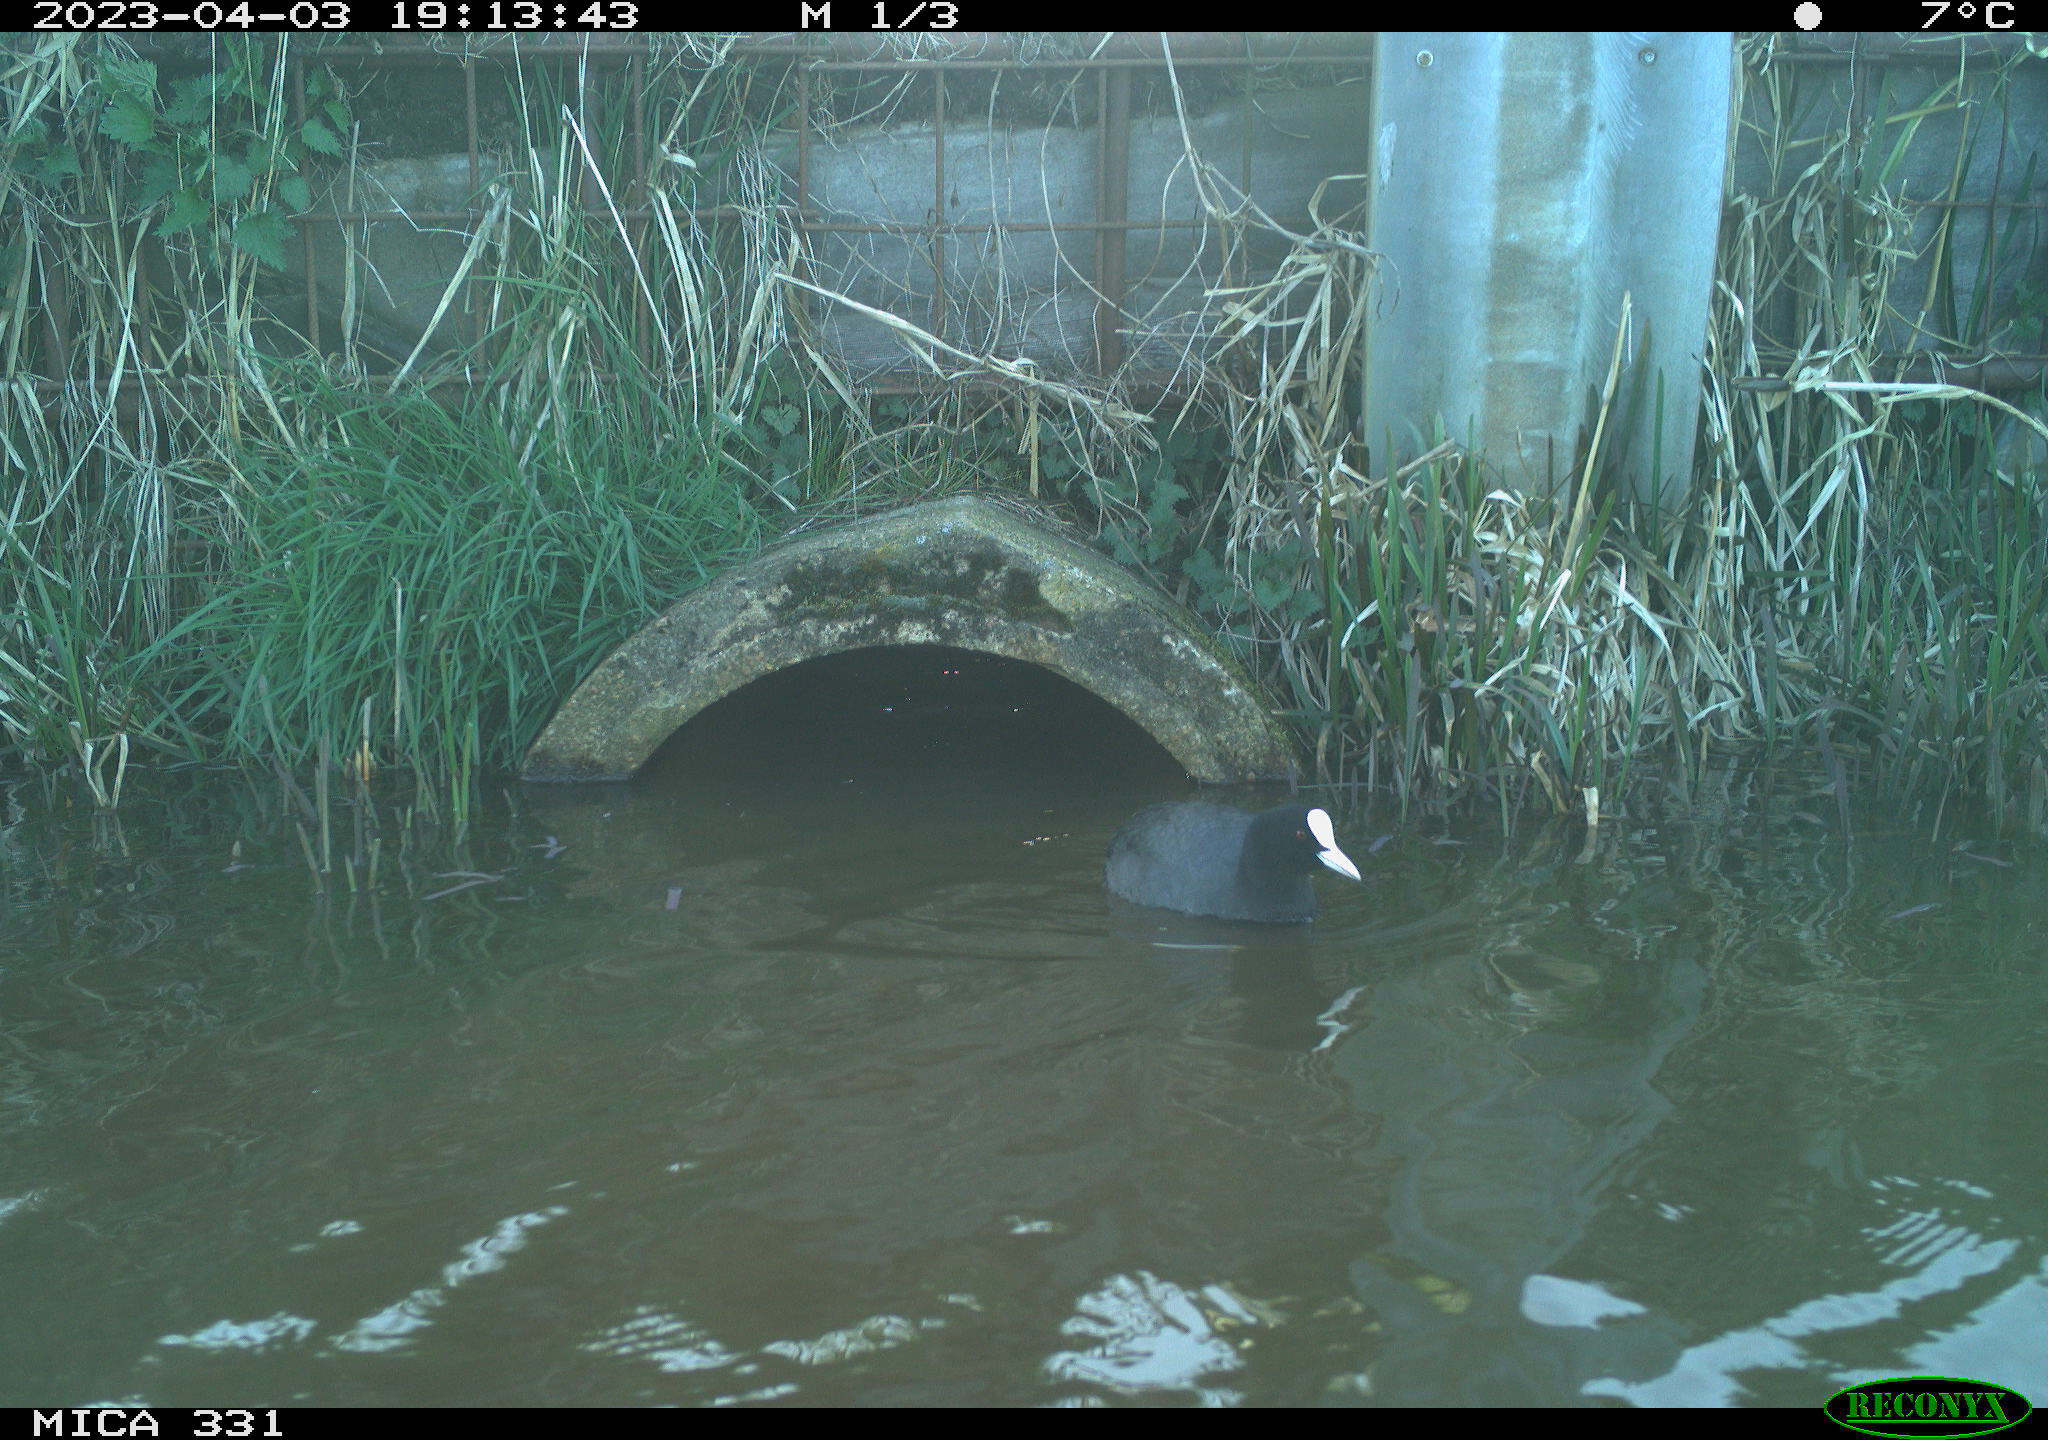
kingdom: Animalia
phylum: Chordata
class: Aves
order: Gruiformes
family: Rallidae
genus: Fulica
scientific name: Fulica atra
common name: Eurasian coot
